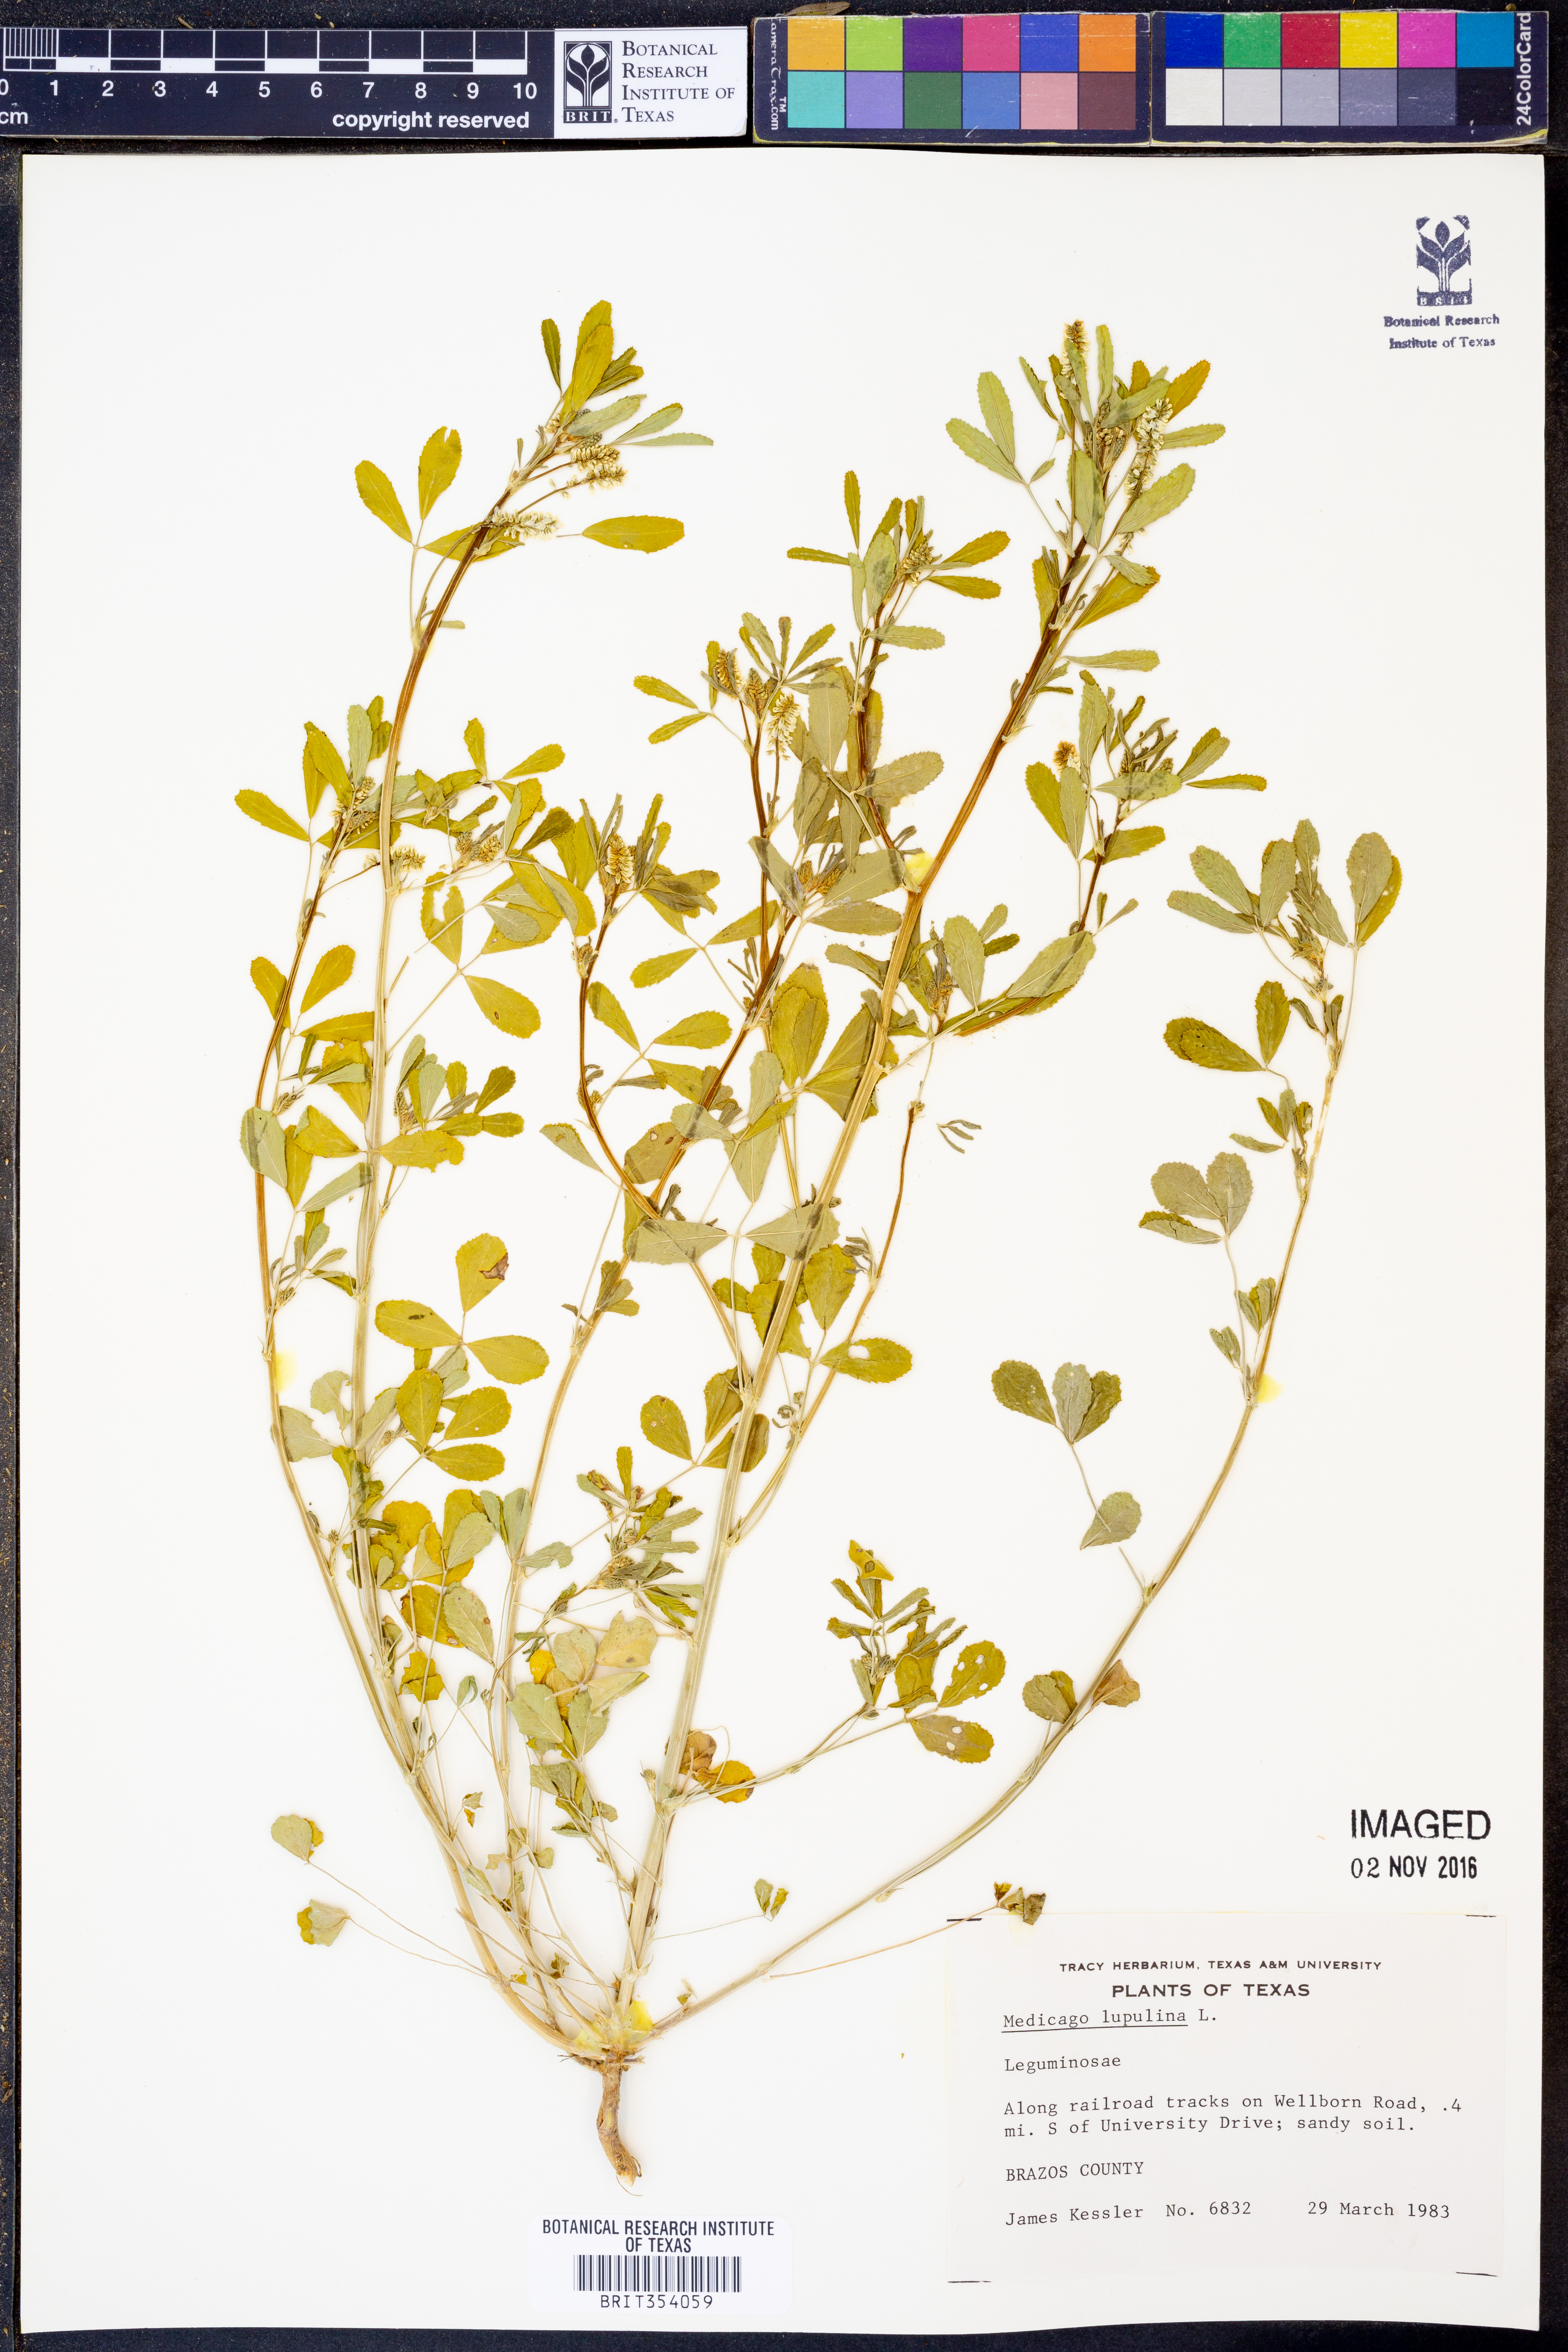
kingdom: Plantae
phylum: Tracheophyta
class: Magnoliopsida
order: Fabales
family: Fabaceae
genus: Medicago
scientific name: Medicago lupulina
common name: Black medick
